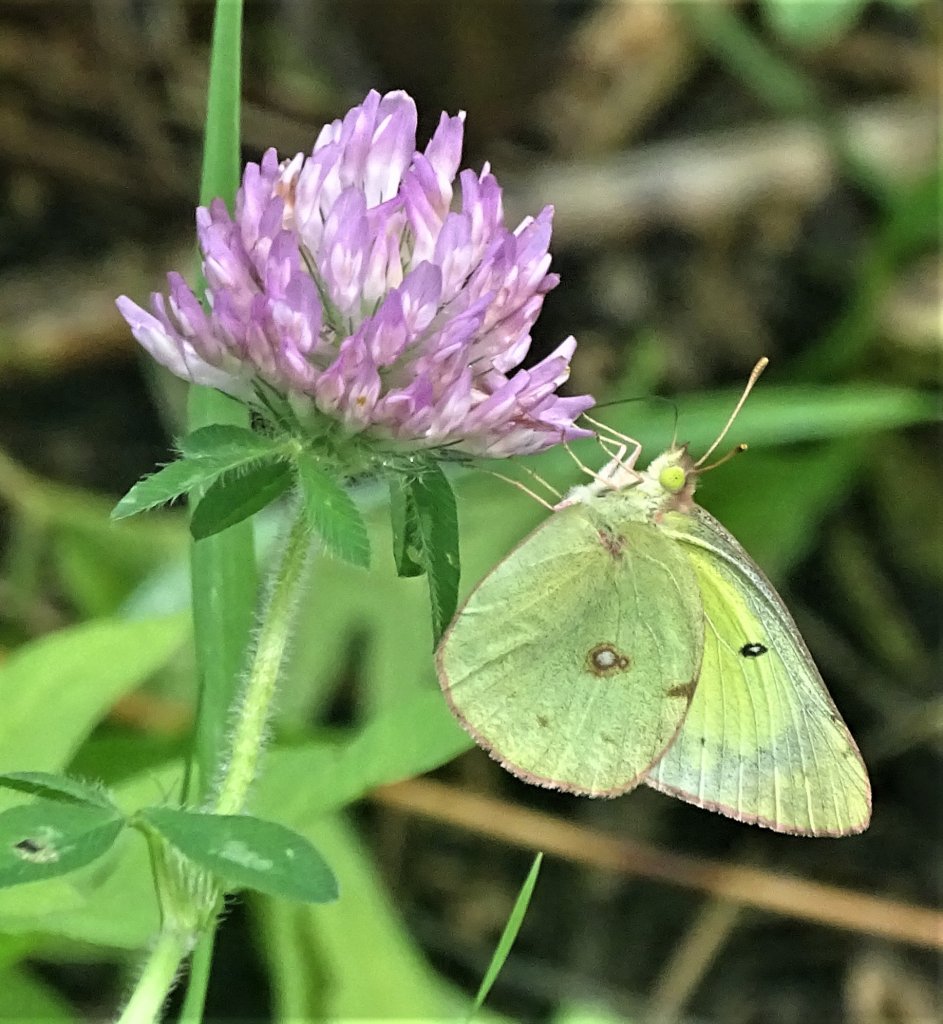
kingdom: Animalia
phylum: Arthropoda
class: Insecta
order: Lepidoptera
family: Pieridae
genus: Colias
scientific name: Colias philodice
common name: Clouded Sulphur
